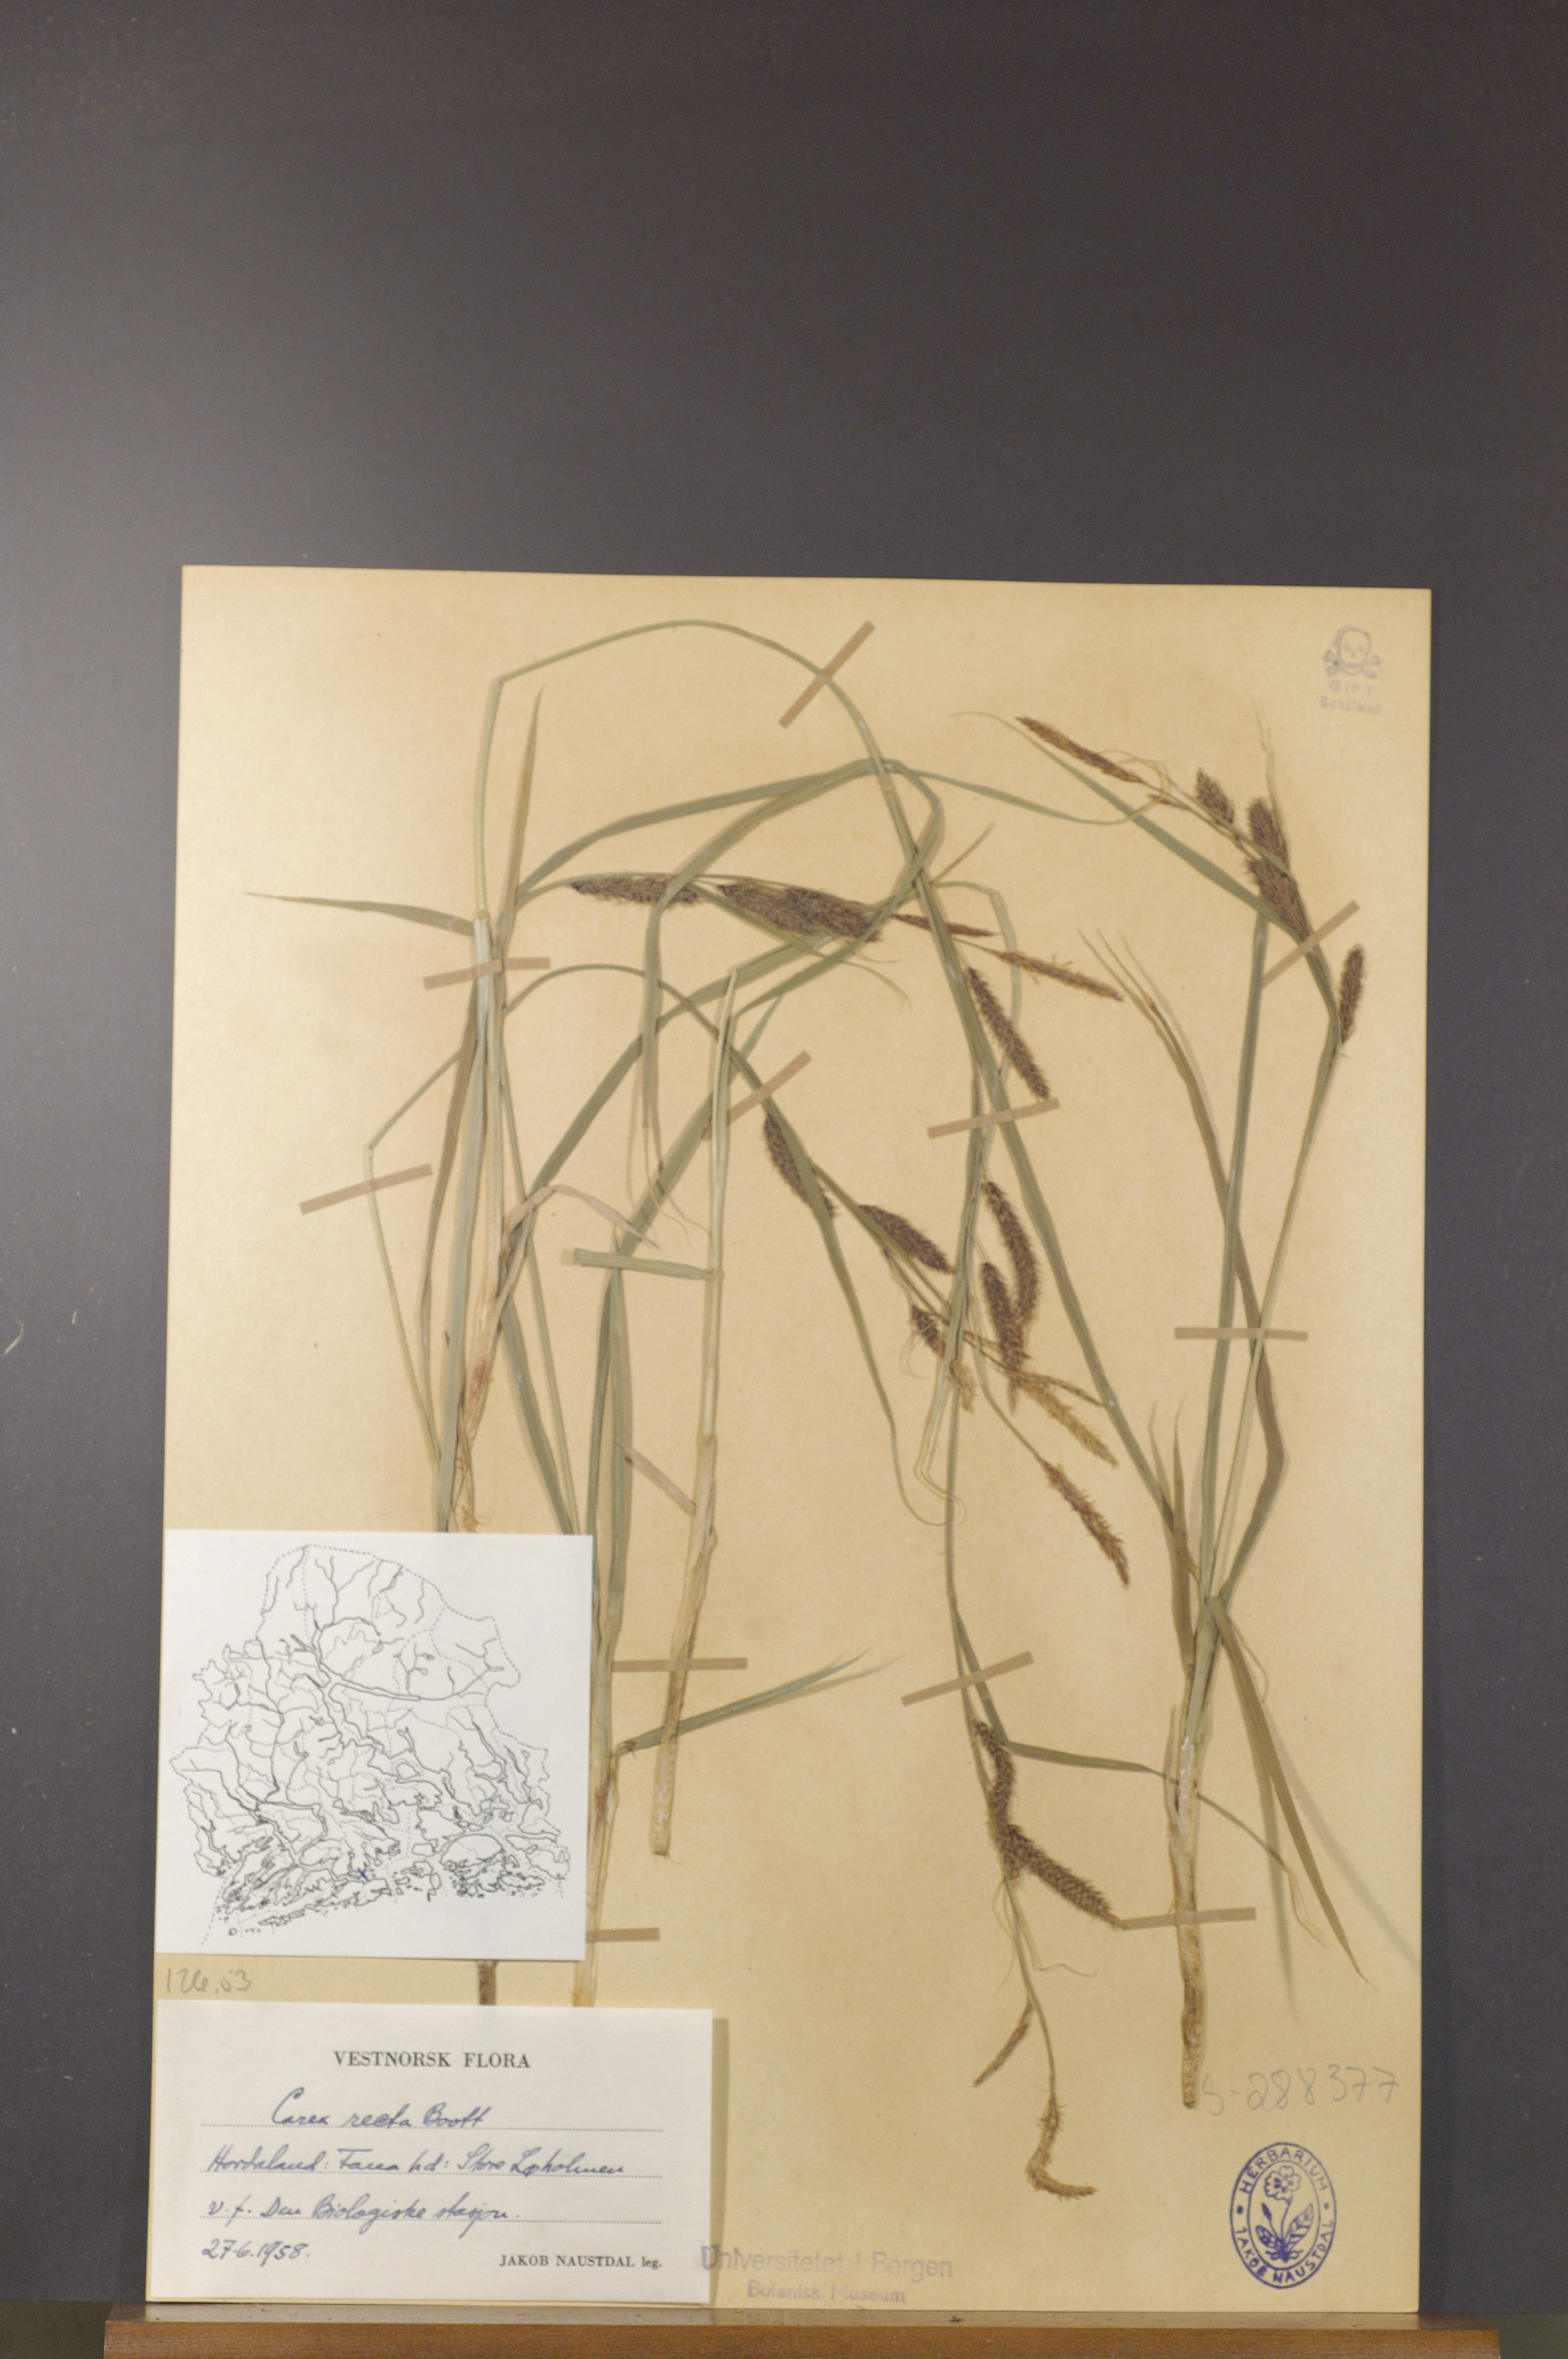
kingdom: Plantae
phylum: Tracheophyta
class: Liliopsida
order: Poales
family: Cyperaceae
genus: Carex
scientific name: Carex recta
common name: Estuarine sedge
